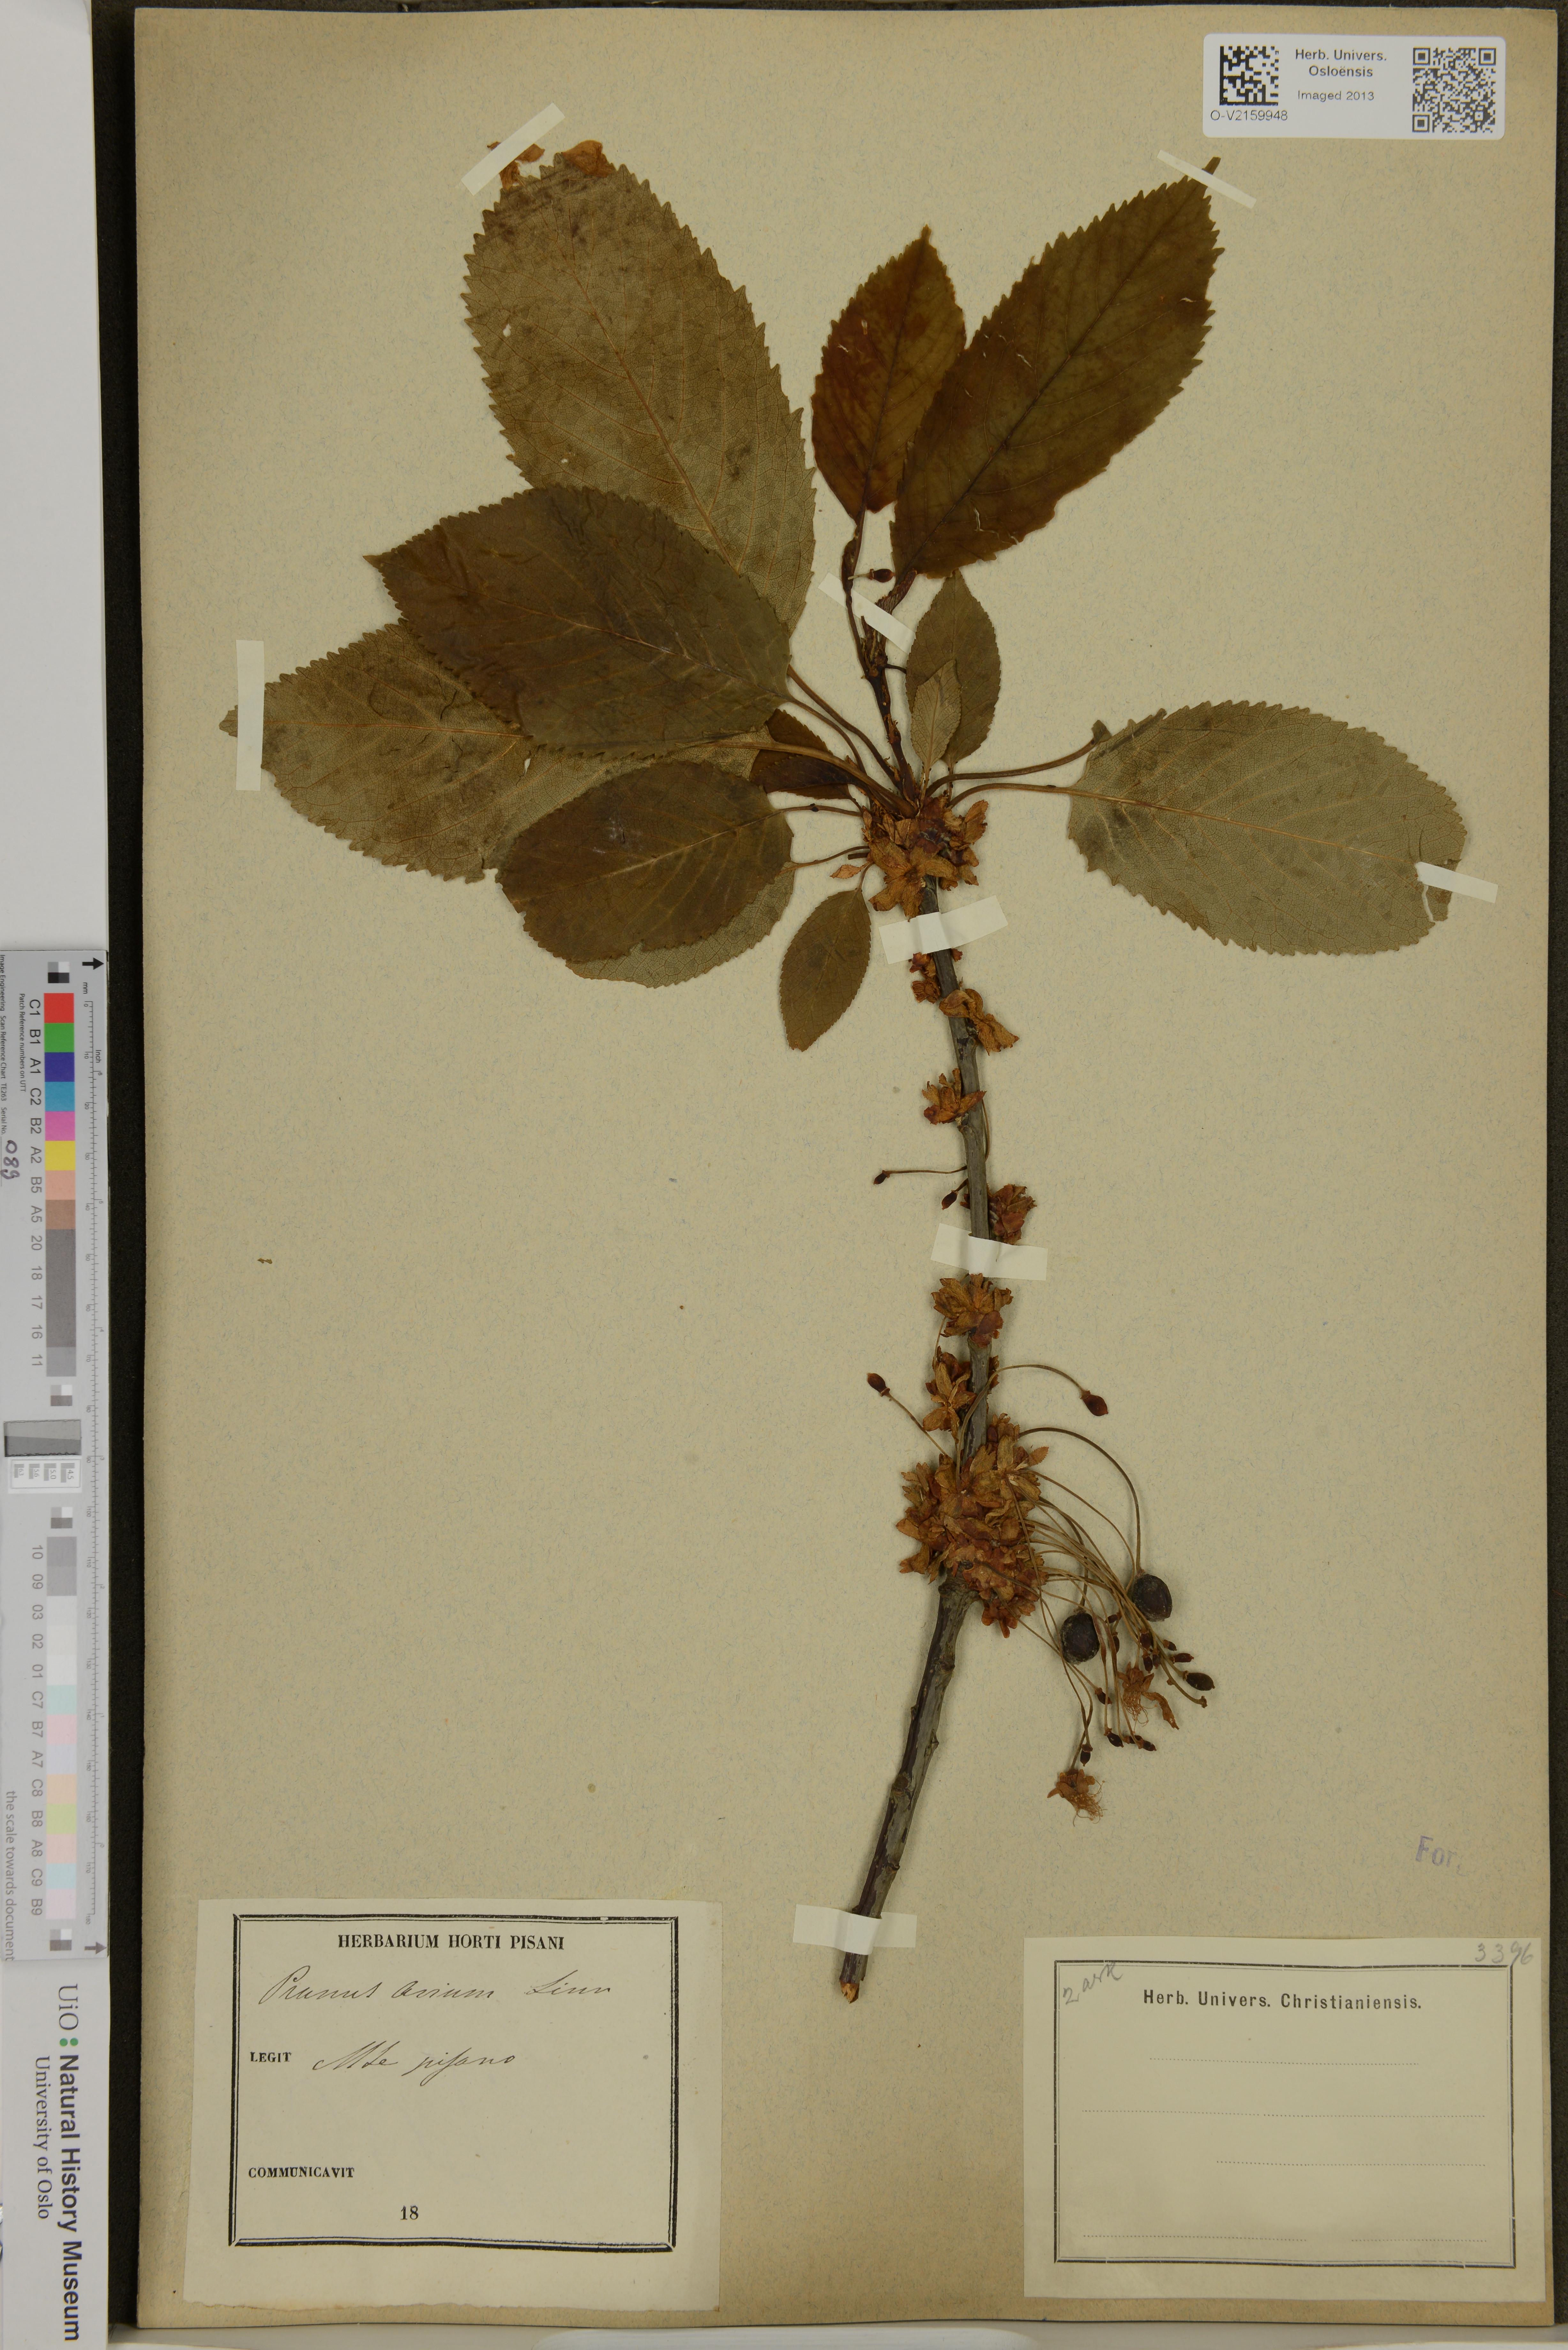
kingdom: Plantae
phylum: Tracheophyta
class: Magnoliopsida
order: Rosales
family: Rosaceae
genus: Prunus
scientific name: Prunus avium
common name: Sweet cherry
